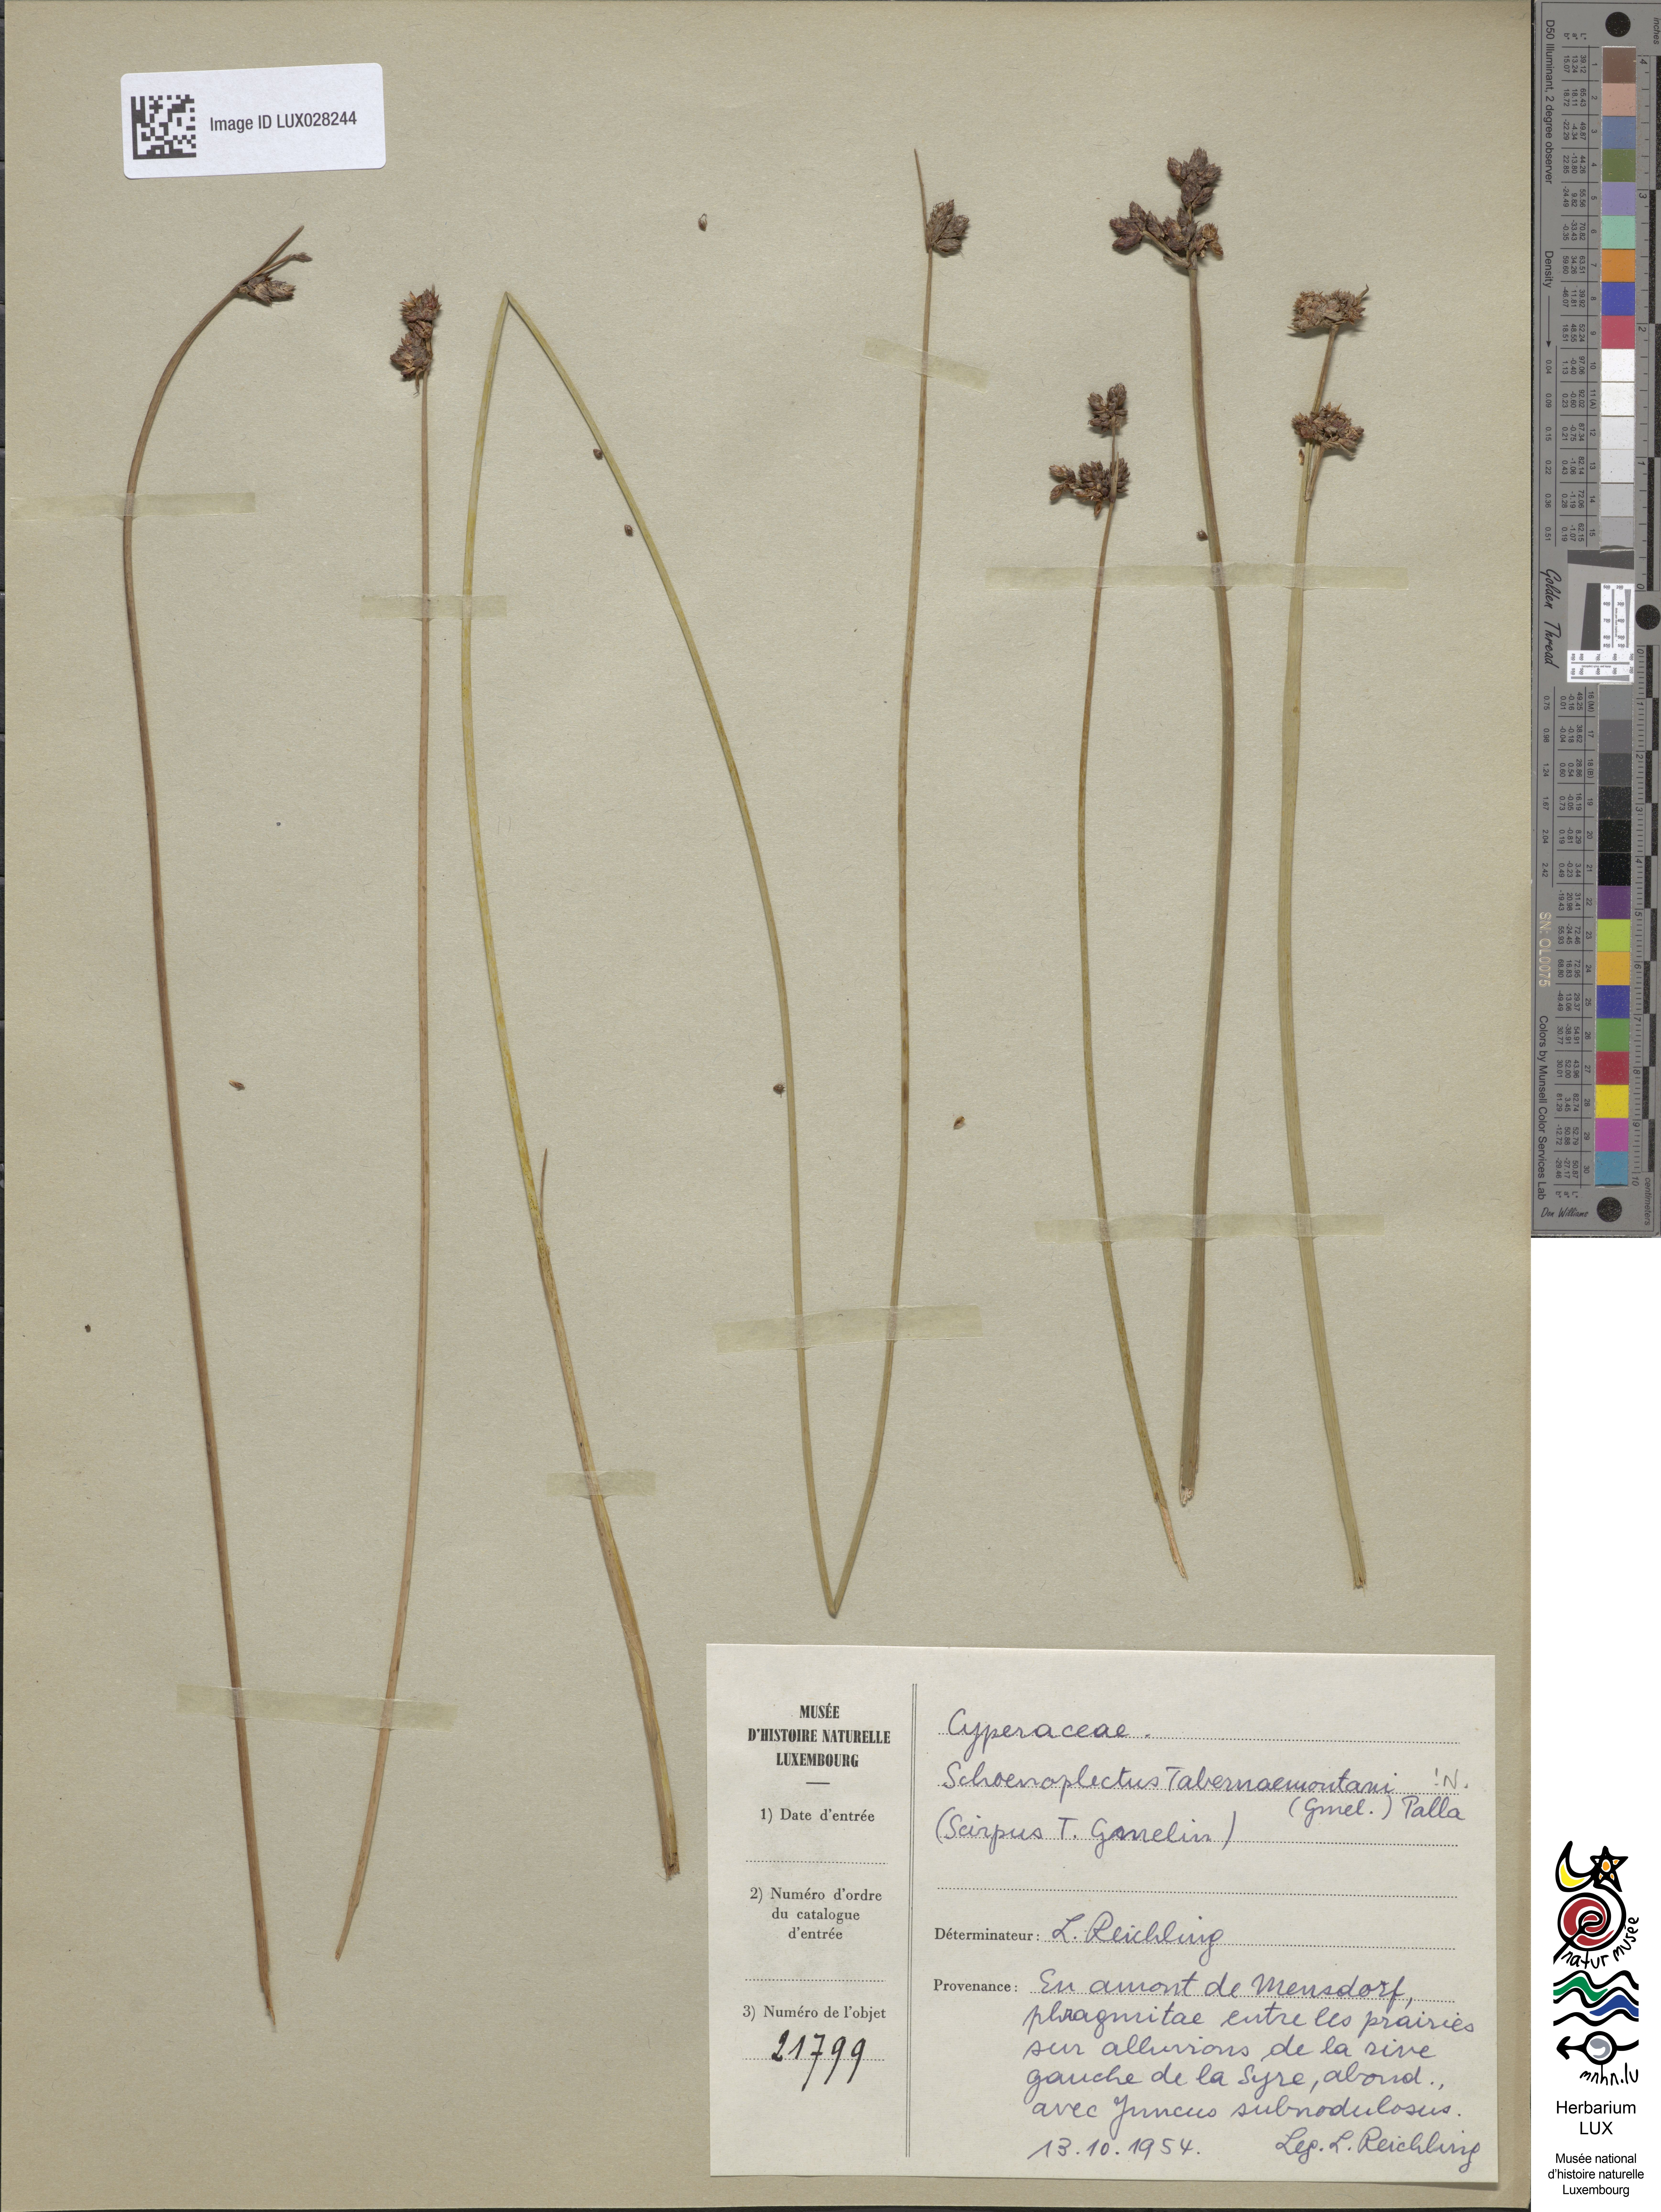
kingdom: Plantae
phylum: Tracheophyta
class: Liliopsida
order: Poales
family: Cyperaceae
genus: Schoenoplectus
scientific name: Schoenoplectus tabernaemontani
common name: Grey club-rush
